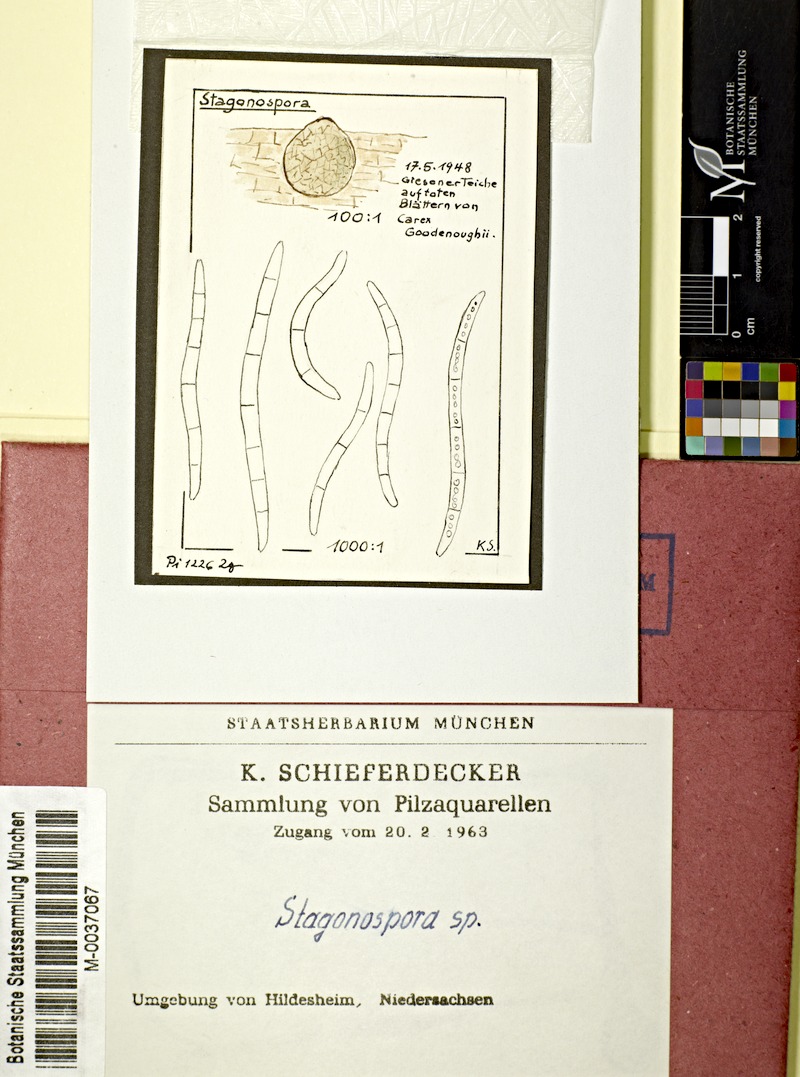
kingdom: Plantae
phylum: Tracheophyta
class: Liliopsida
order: Poales
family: Cyperaceae
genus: Carex
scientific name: Carex nigra
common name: Common sedge
